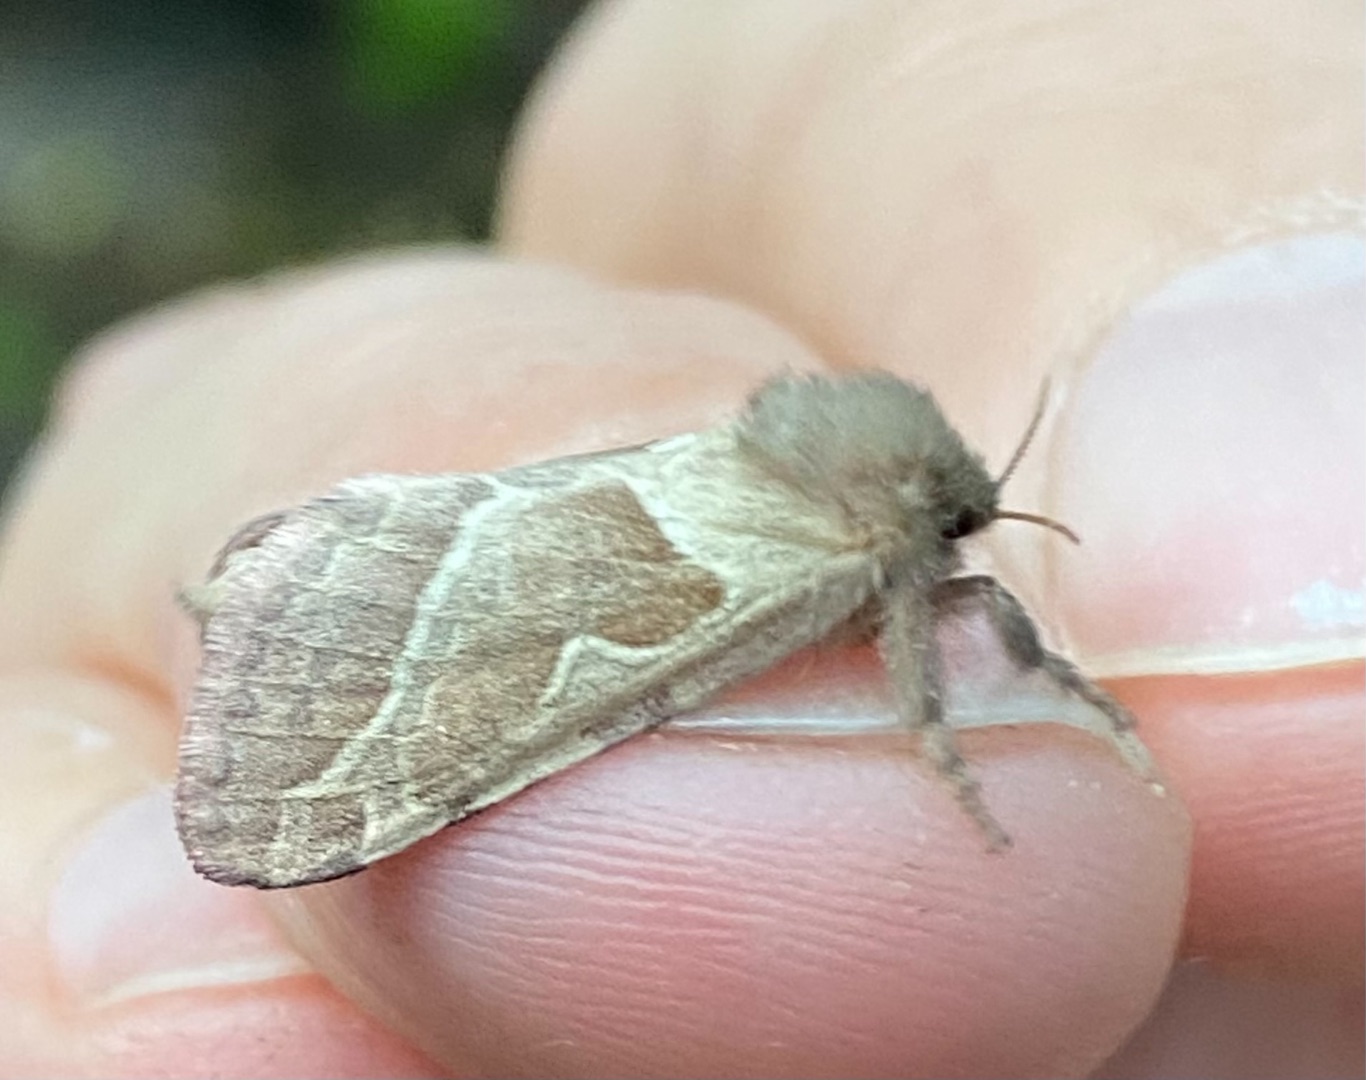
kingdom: Animalia
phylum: Arthropoda
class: Insecta
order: Lepidoptera
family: Hepialidae
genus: Triodia
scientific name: Triodia sylvina
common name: Skræpperodæder
